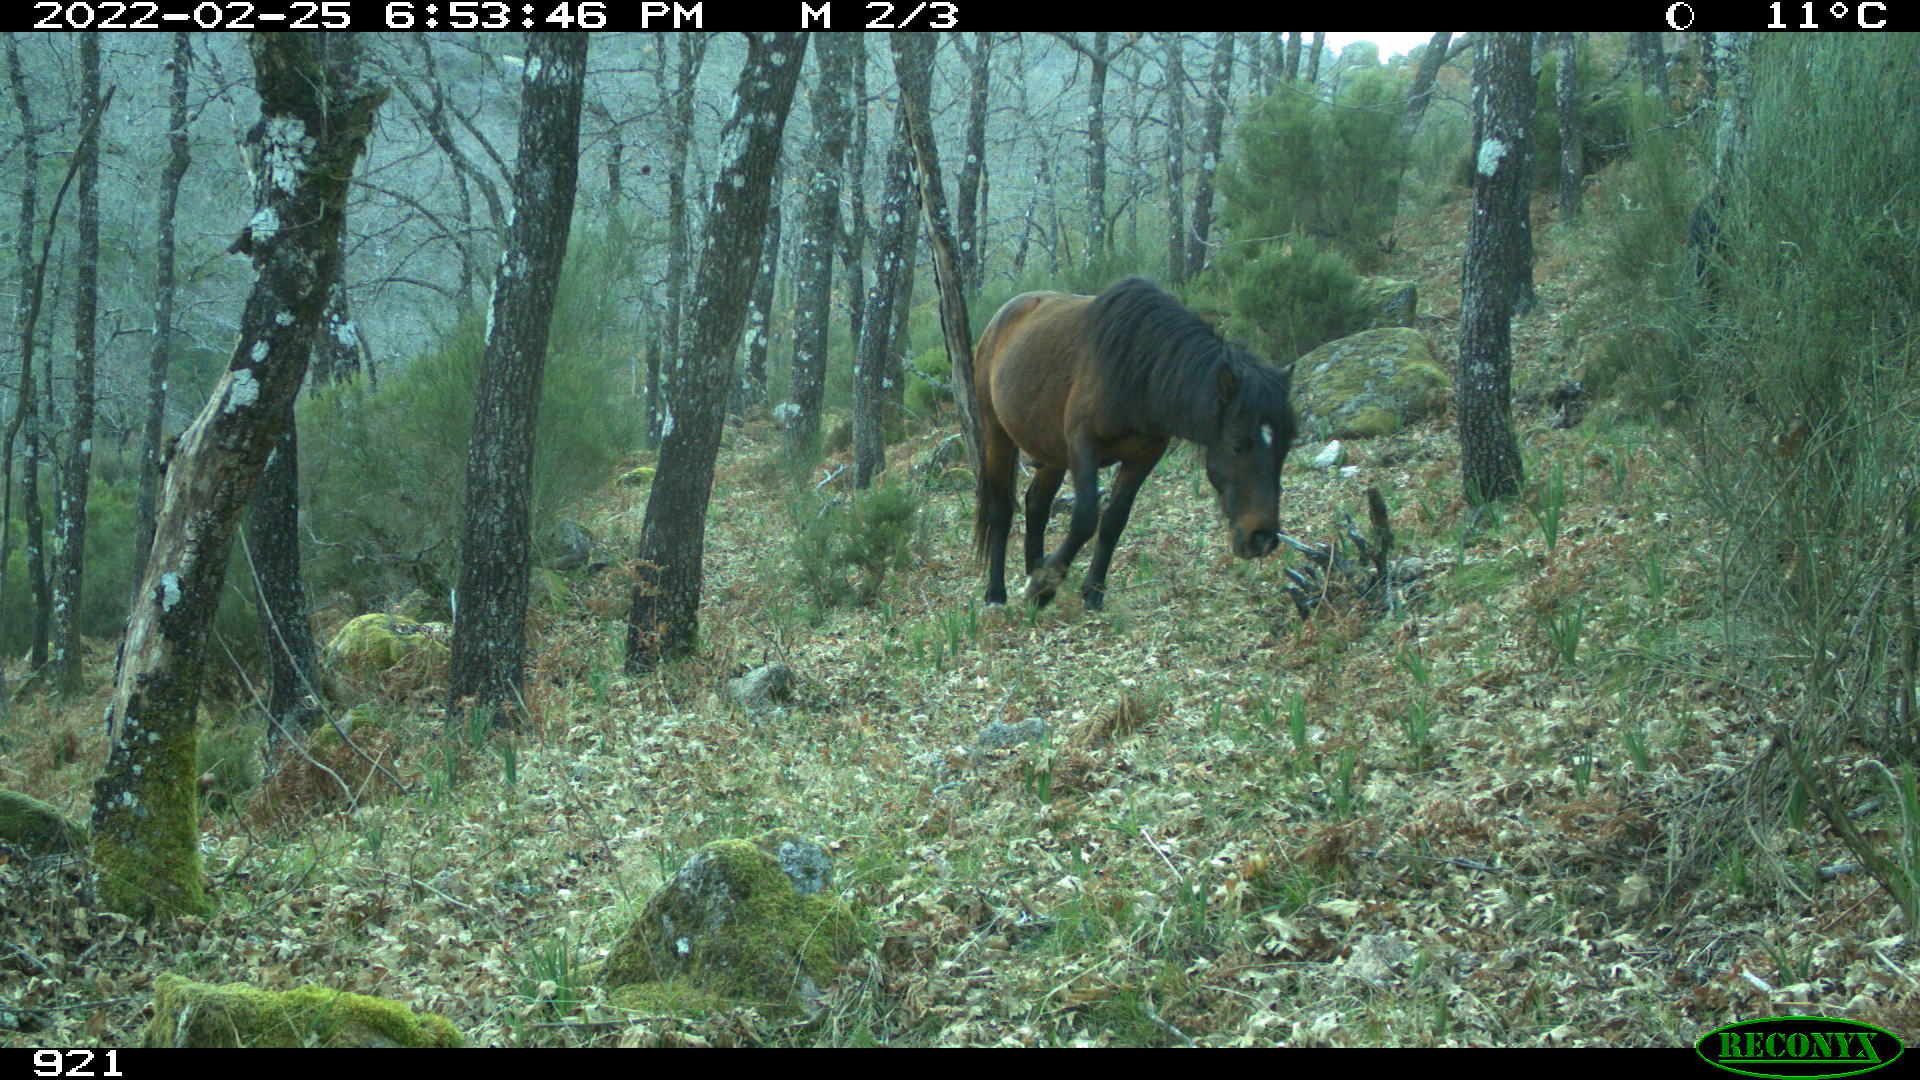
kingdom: Animalia
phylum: Chordata
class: Mammalia
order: Perissodactyla
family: Equidae
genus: Equus
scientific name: Equus caballus
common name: Horse
